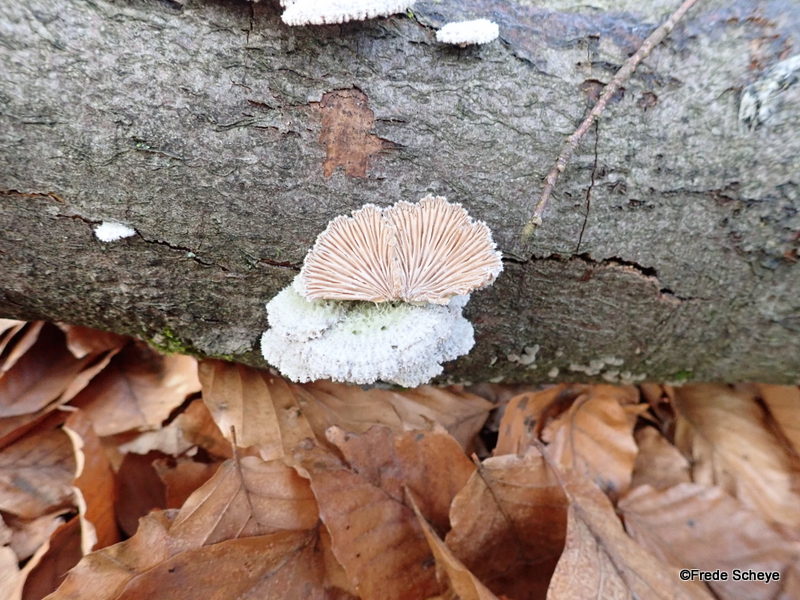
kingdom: Fungi
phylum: Basidiomycota
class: Agaricomycetes
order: Agaricales
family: Schizophyllaceae
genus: Schizophyllum
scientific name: Schizophyllum commune
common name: kløvblad
